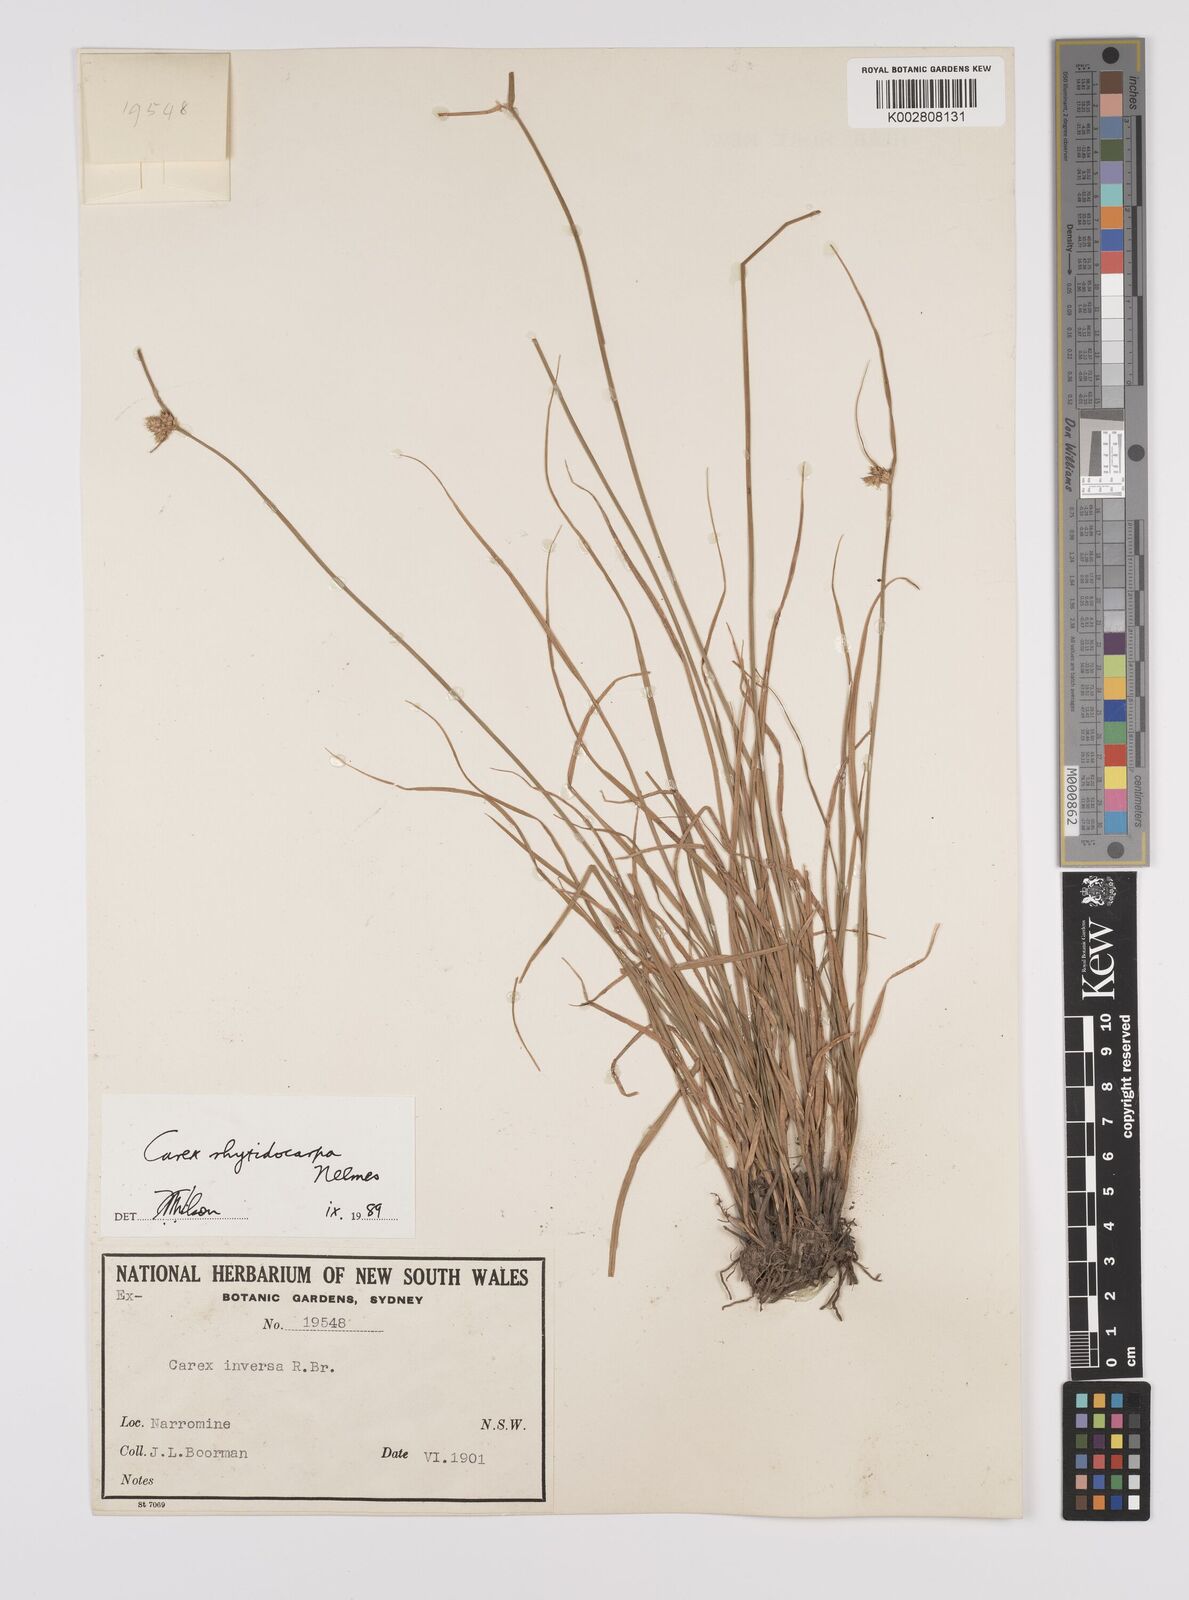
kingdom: Plantae
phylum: Tracheophyta
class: Liliopsida
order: Poales
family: Cyperaceae
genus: Carex
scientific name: Carex inversa
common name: Knob sedge
